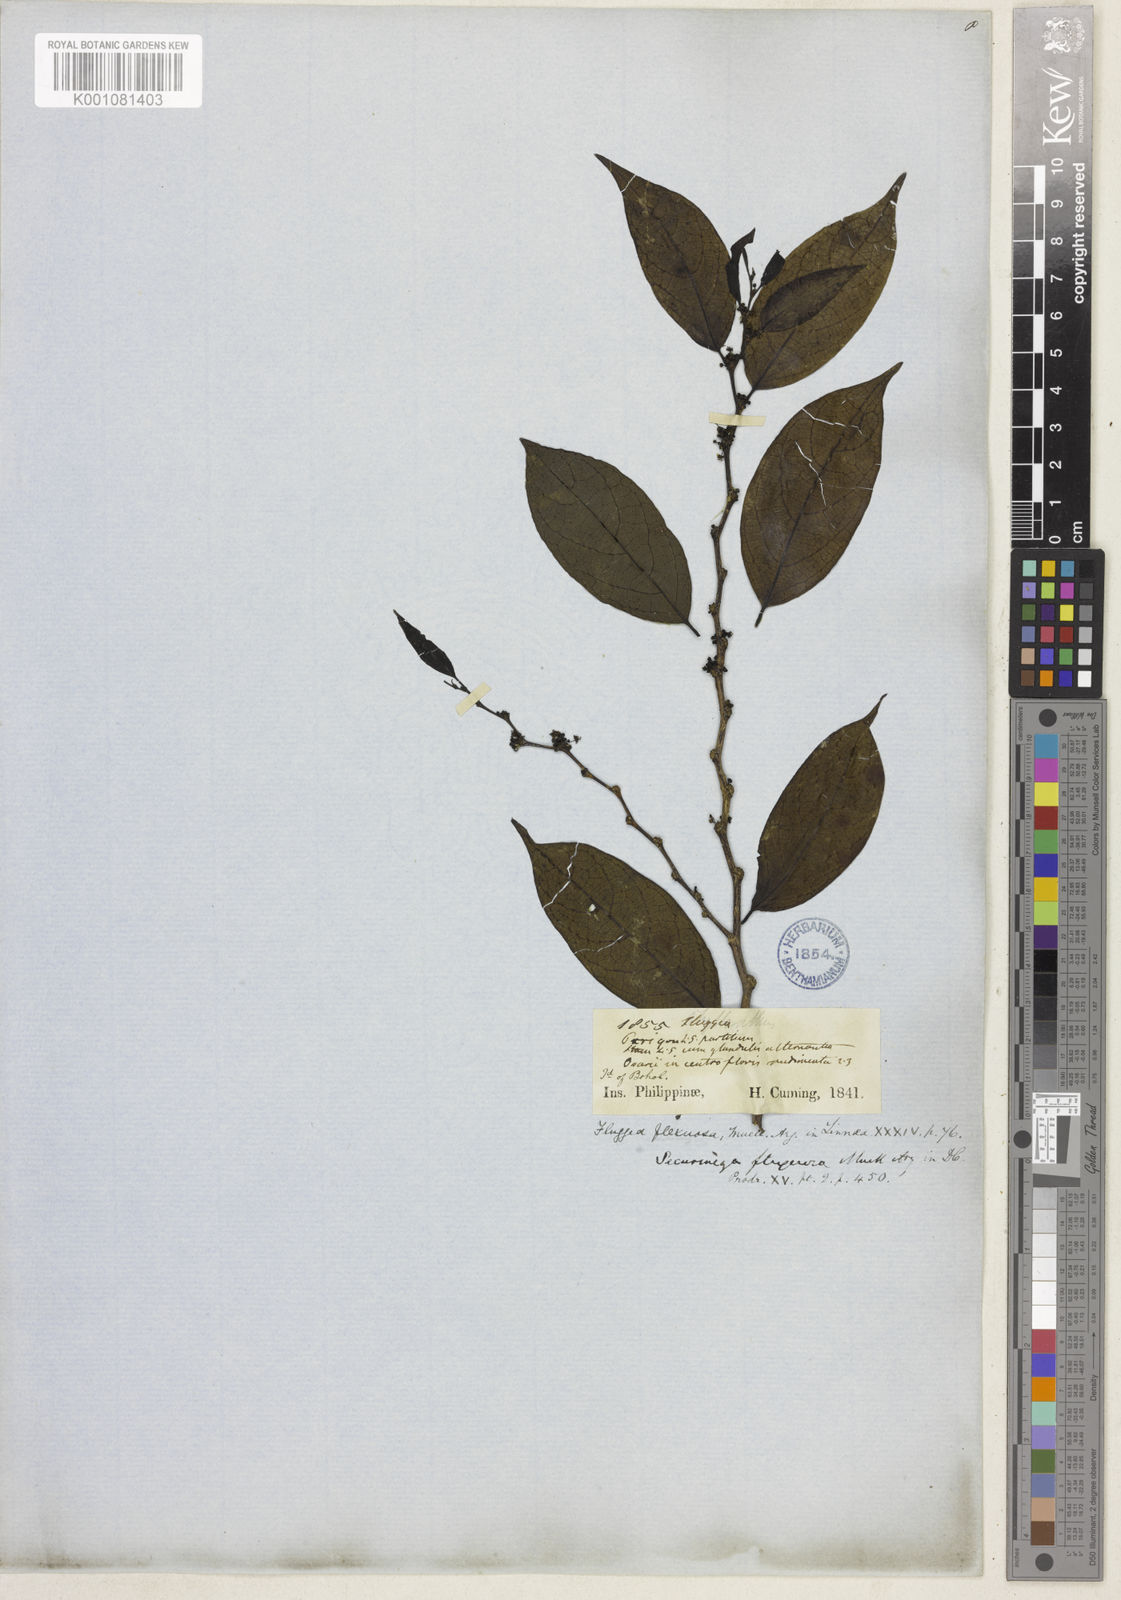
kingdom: Plantae
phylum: Tracheophyta
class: Magnoliopsida
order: Malpighiales
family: Phyllanthaceae
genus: Flueggea
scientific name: Flueggea
